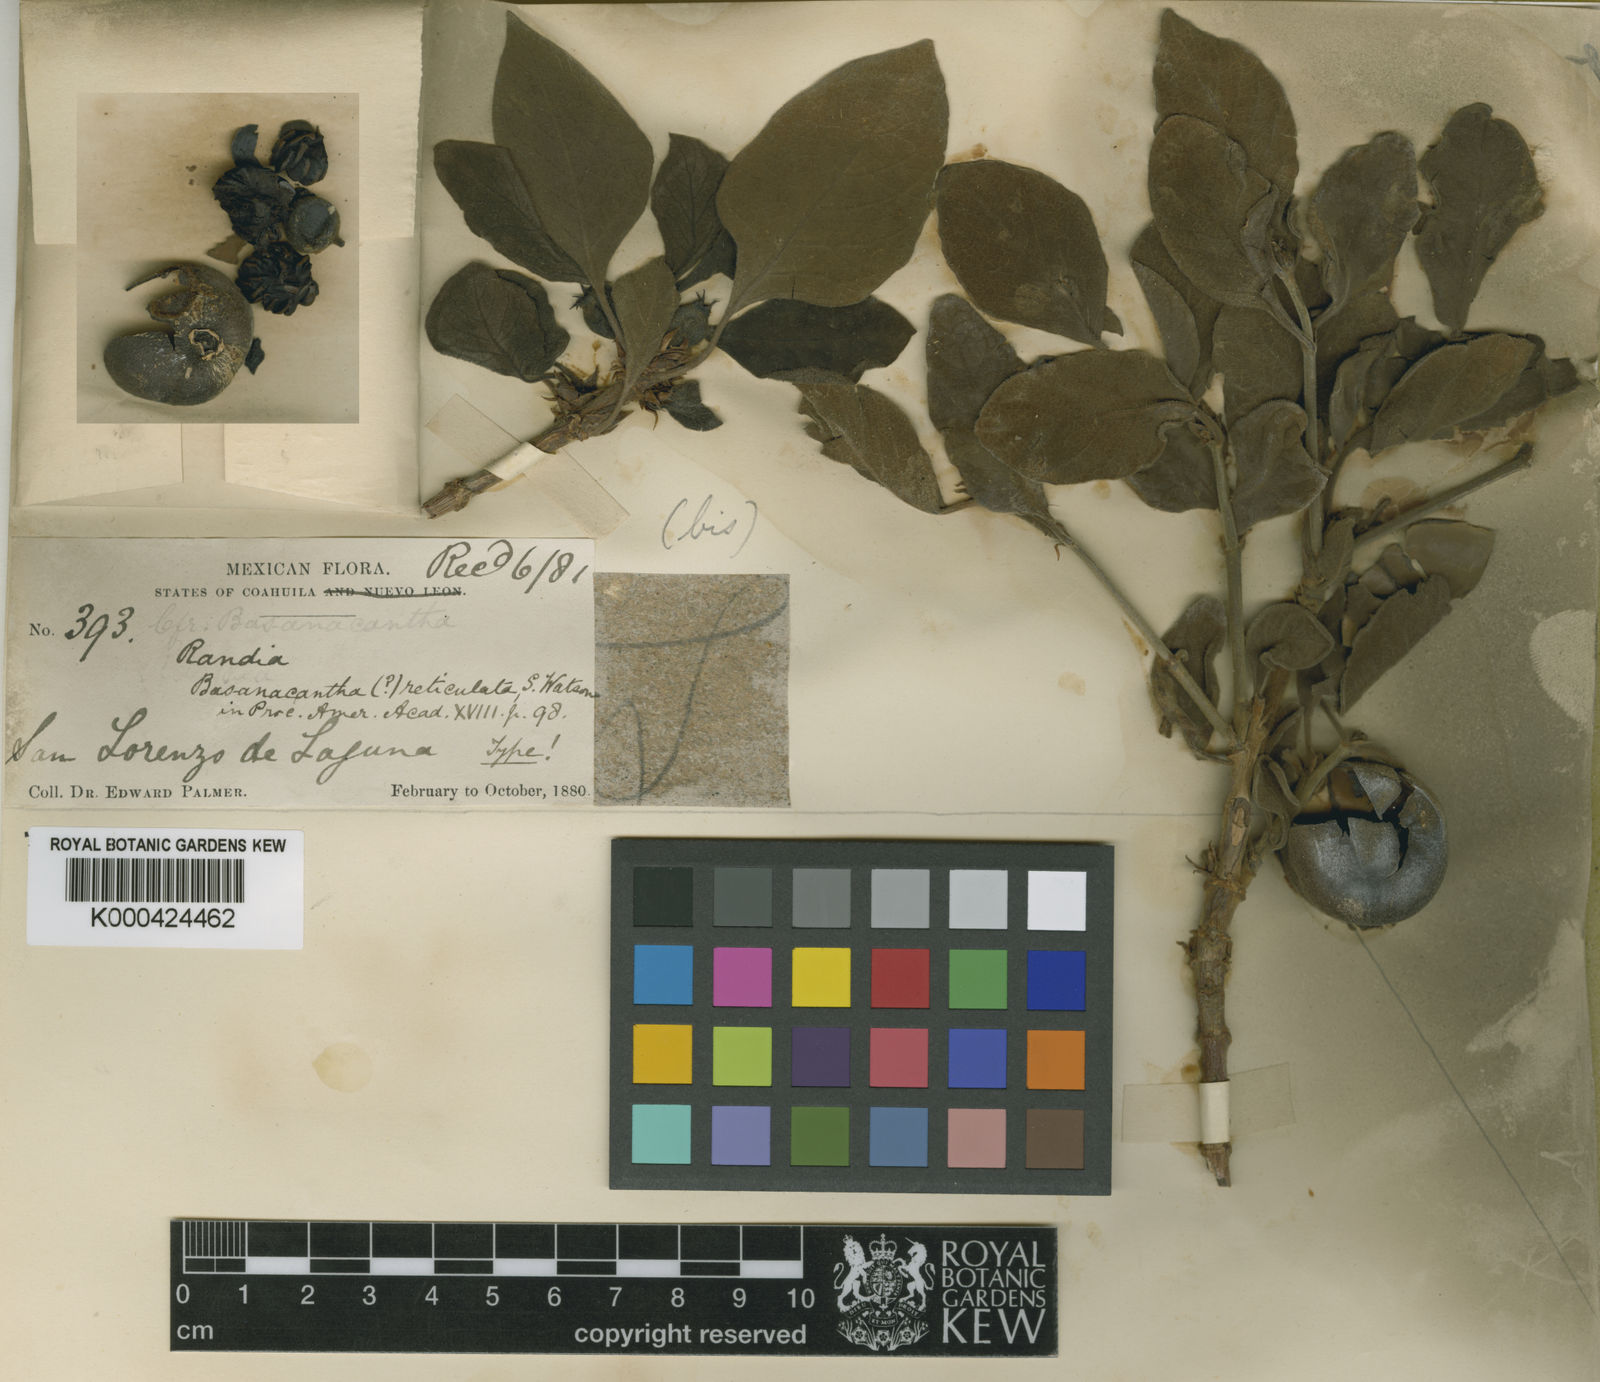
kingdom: Plantae
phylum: Tracheophyta
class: Magnoliopsida
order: Gentianales
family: Rubiaceae
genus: Randia
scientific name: Randia pringlei
